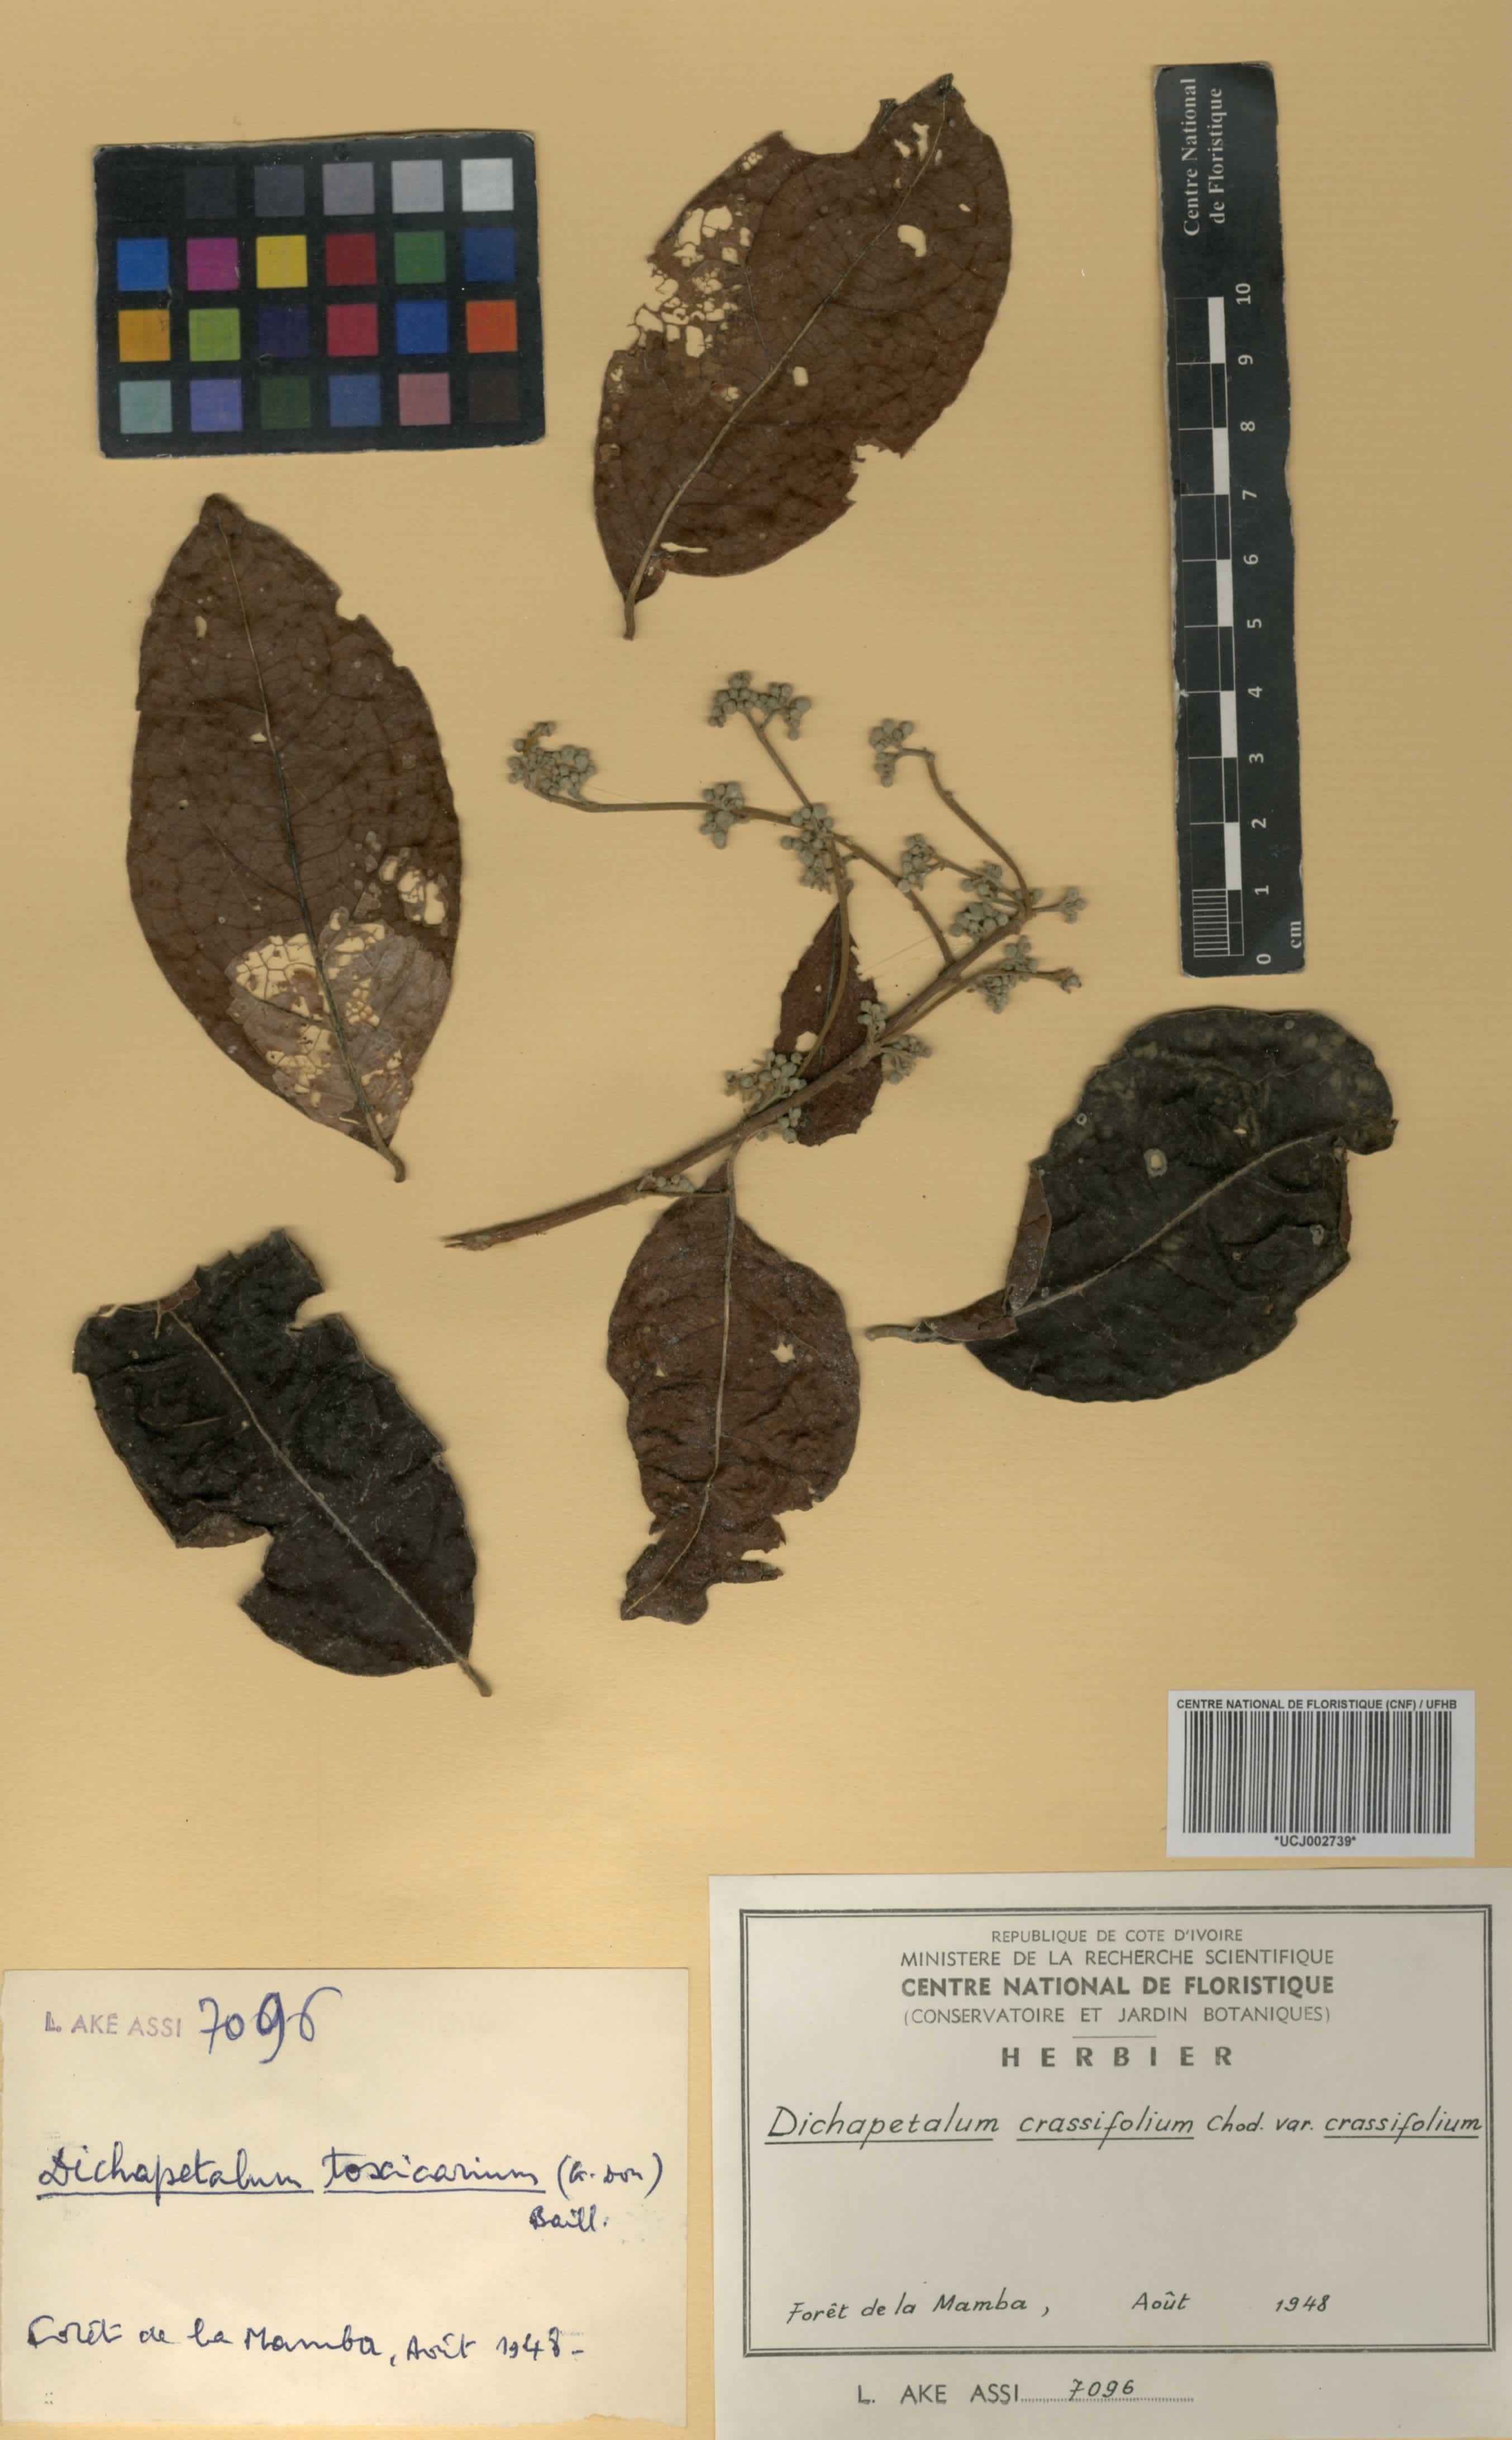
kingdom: Plantae
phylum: Tracheophyta
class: Magnoliopsida
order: Malpighiales
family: Dichapetalaceae
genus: Dichapetalum
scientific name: Dichapetalum crassifolium
